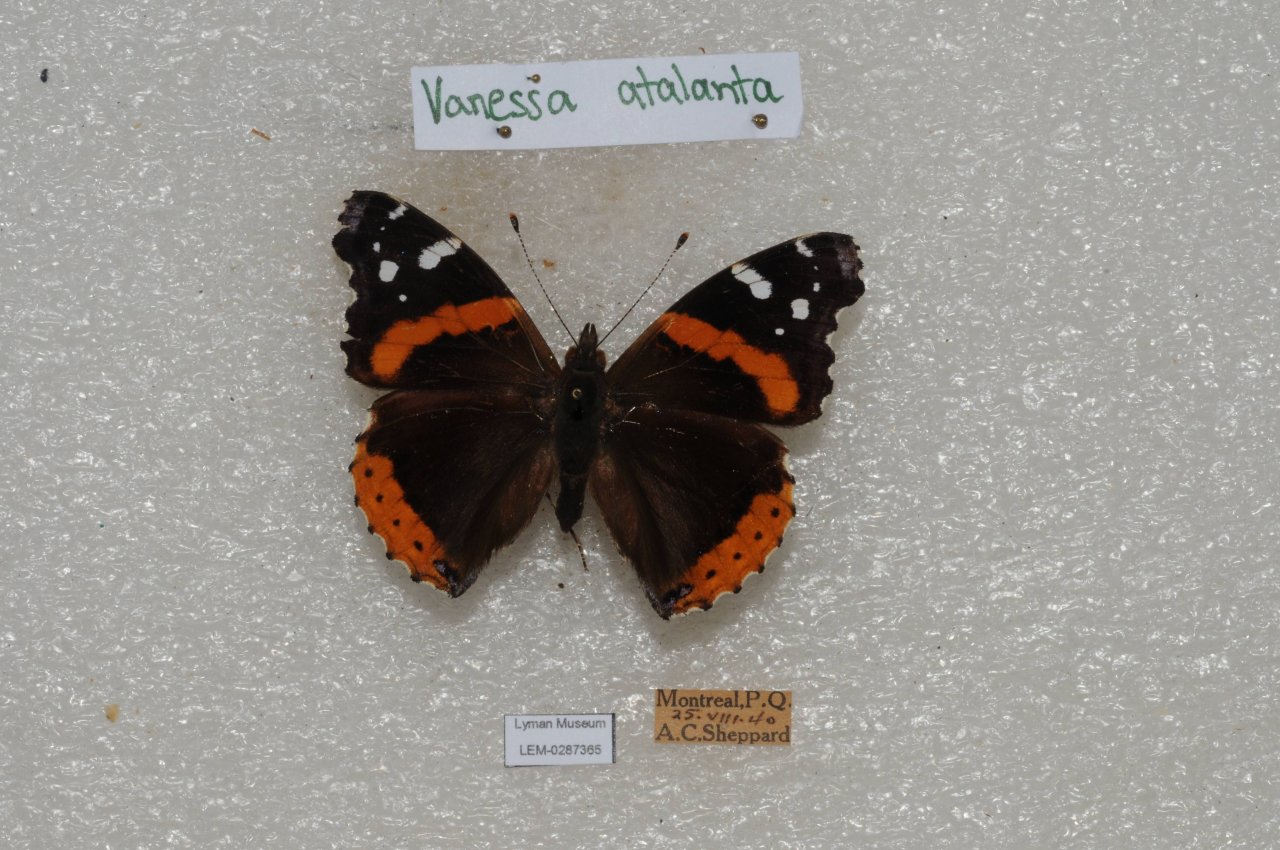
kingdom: Animalia
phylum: Arthropoda
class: Insecta
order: Lepidoptera
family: Nymphalidae
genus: Vanessa
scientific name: Vanessa atalanta
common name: Red Admiral
